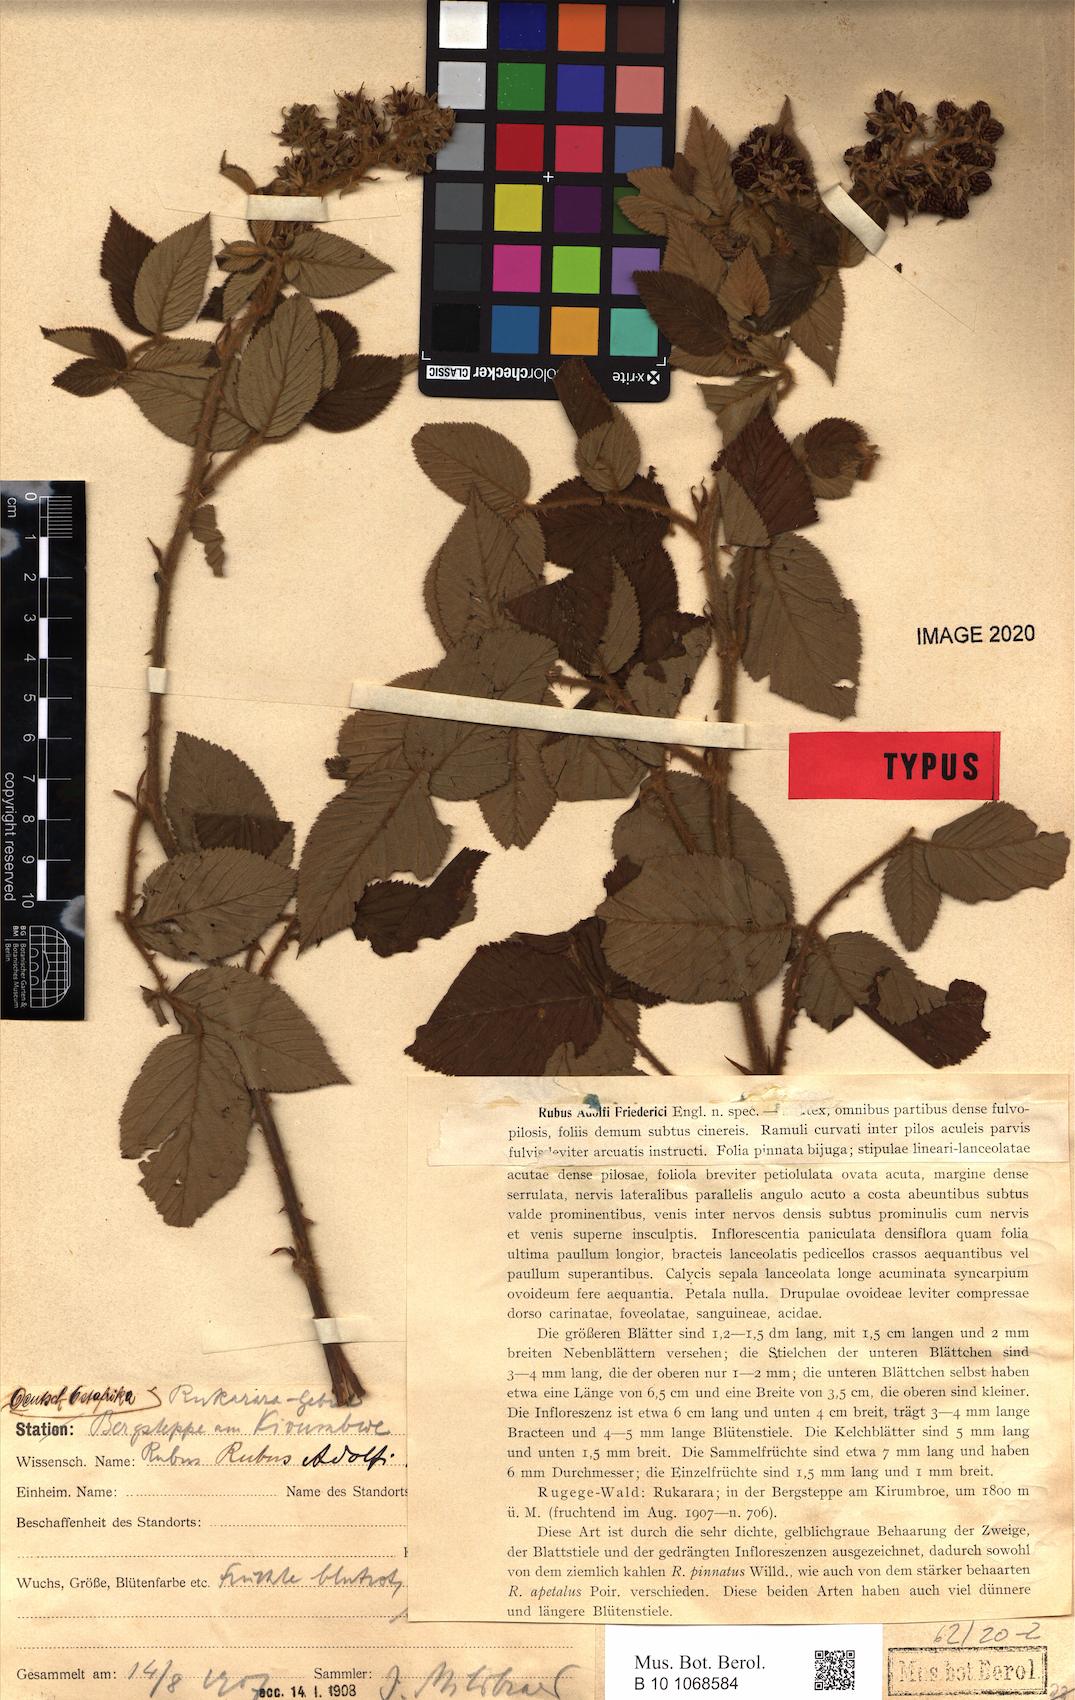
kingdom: Plantae
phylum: Tracheophyta
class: Magnoliopsida
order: Rosales
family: Rosaceae
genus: Rubus
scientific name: Rubus apetalus
